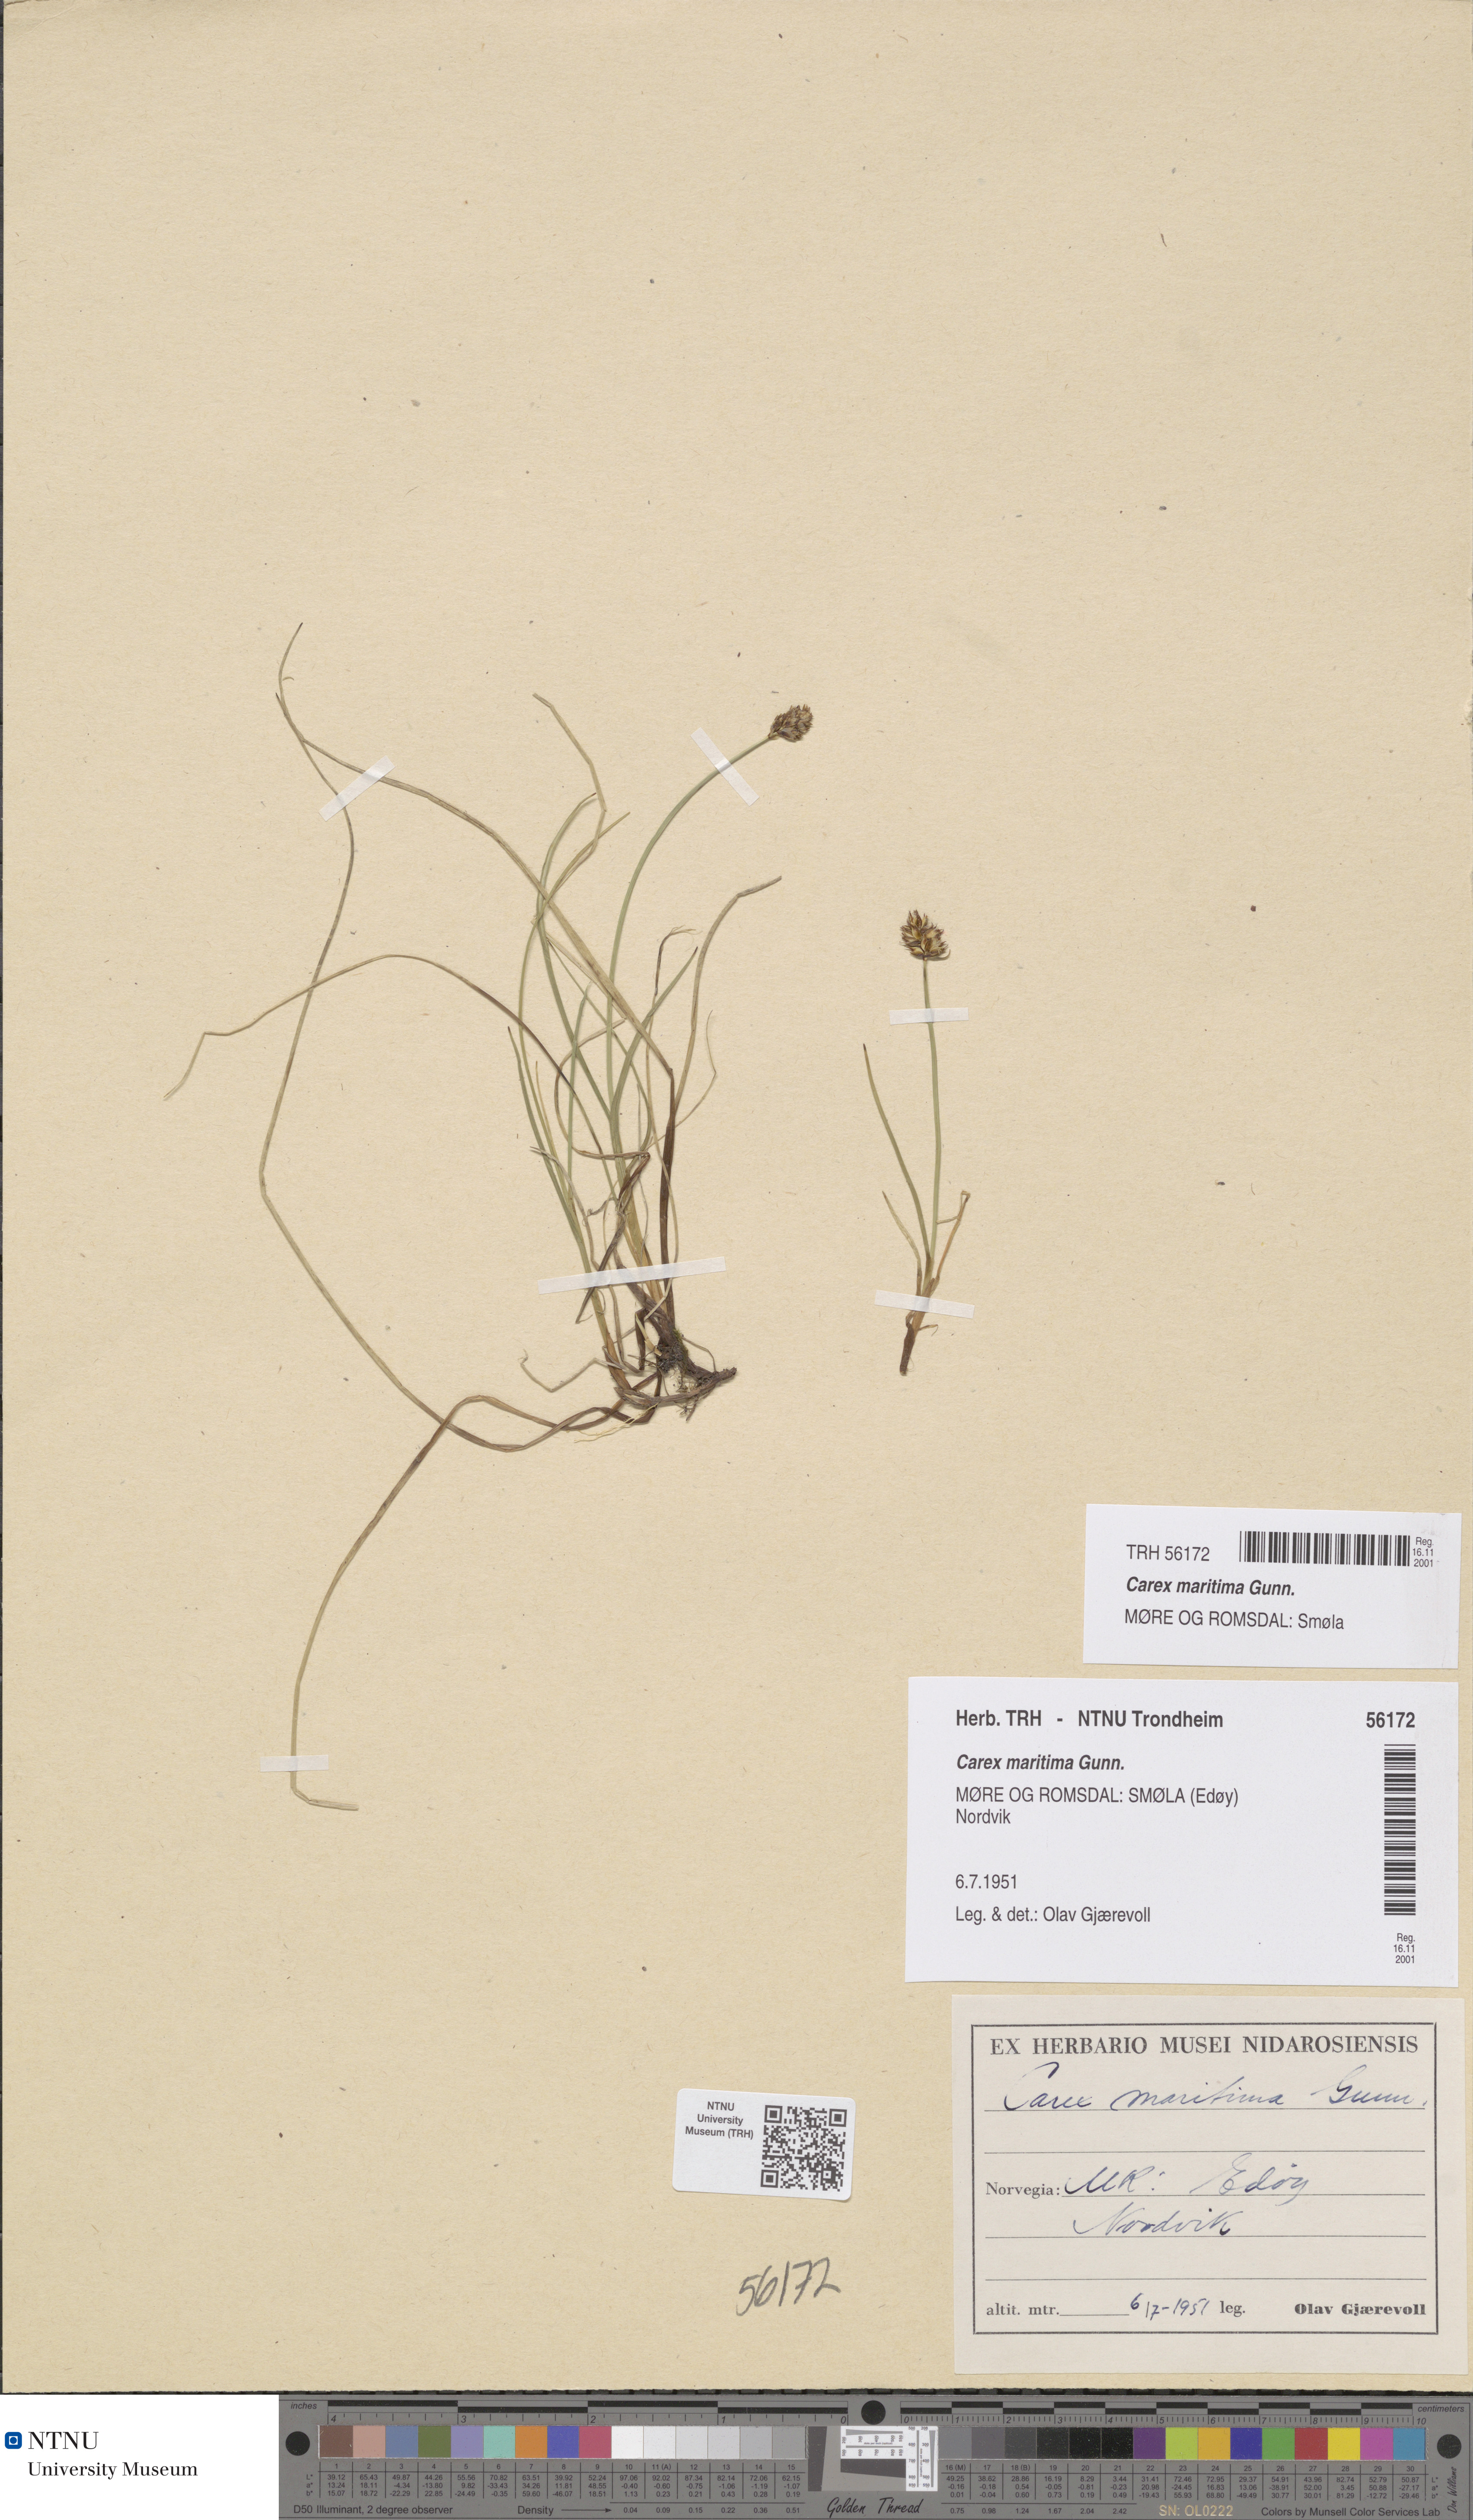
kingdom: Plantae
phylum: Tracheophyta
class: Liliopsida
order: Poales
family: Cyperaceae
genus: Carex
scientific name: Carex maritima
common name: Curved sedge
